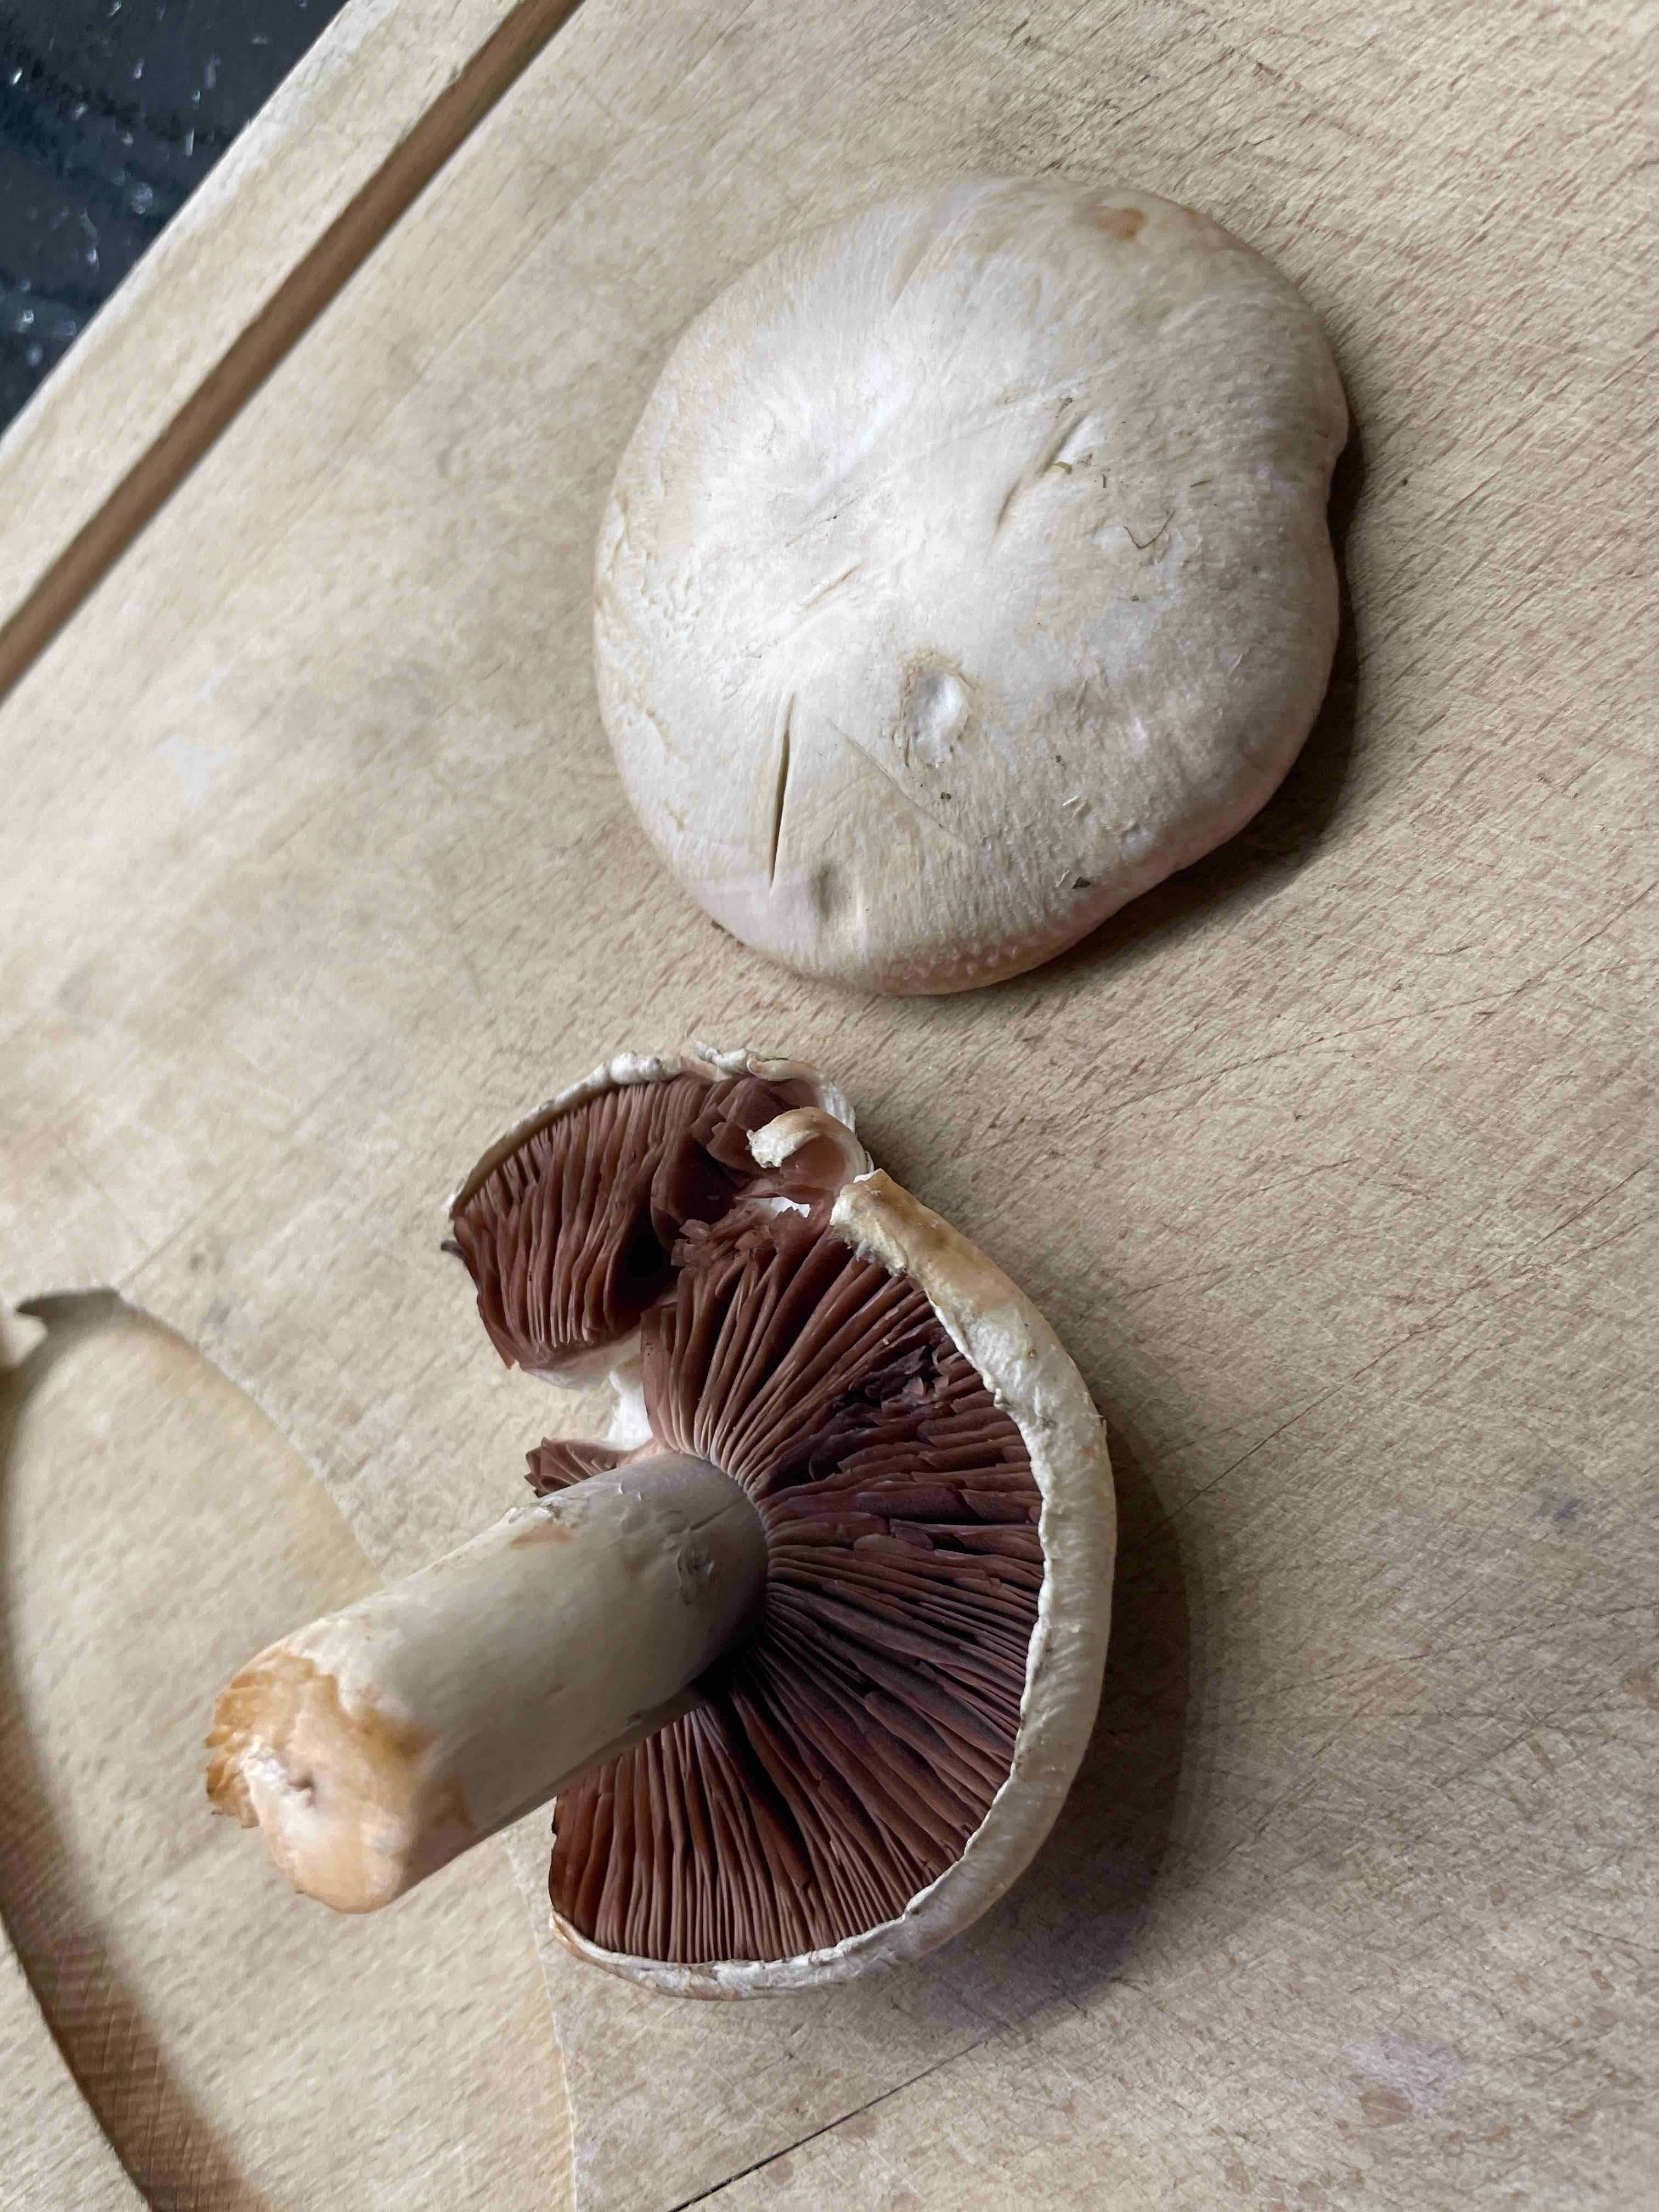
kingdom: Fungi
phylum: Basidiomycota
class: Agaricomycetes
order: Agaricales
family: Agaricaceae
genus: Agaricus
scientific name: Agaricus
